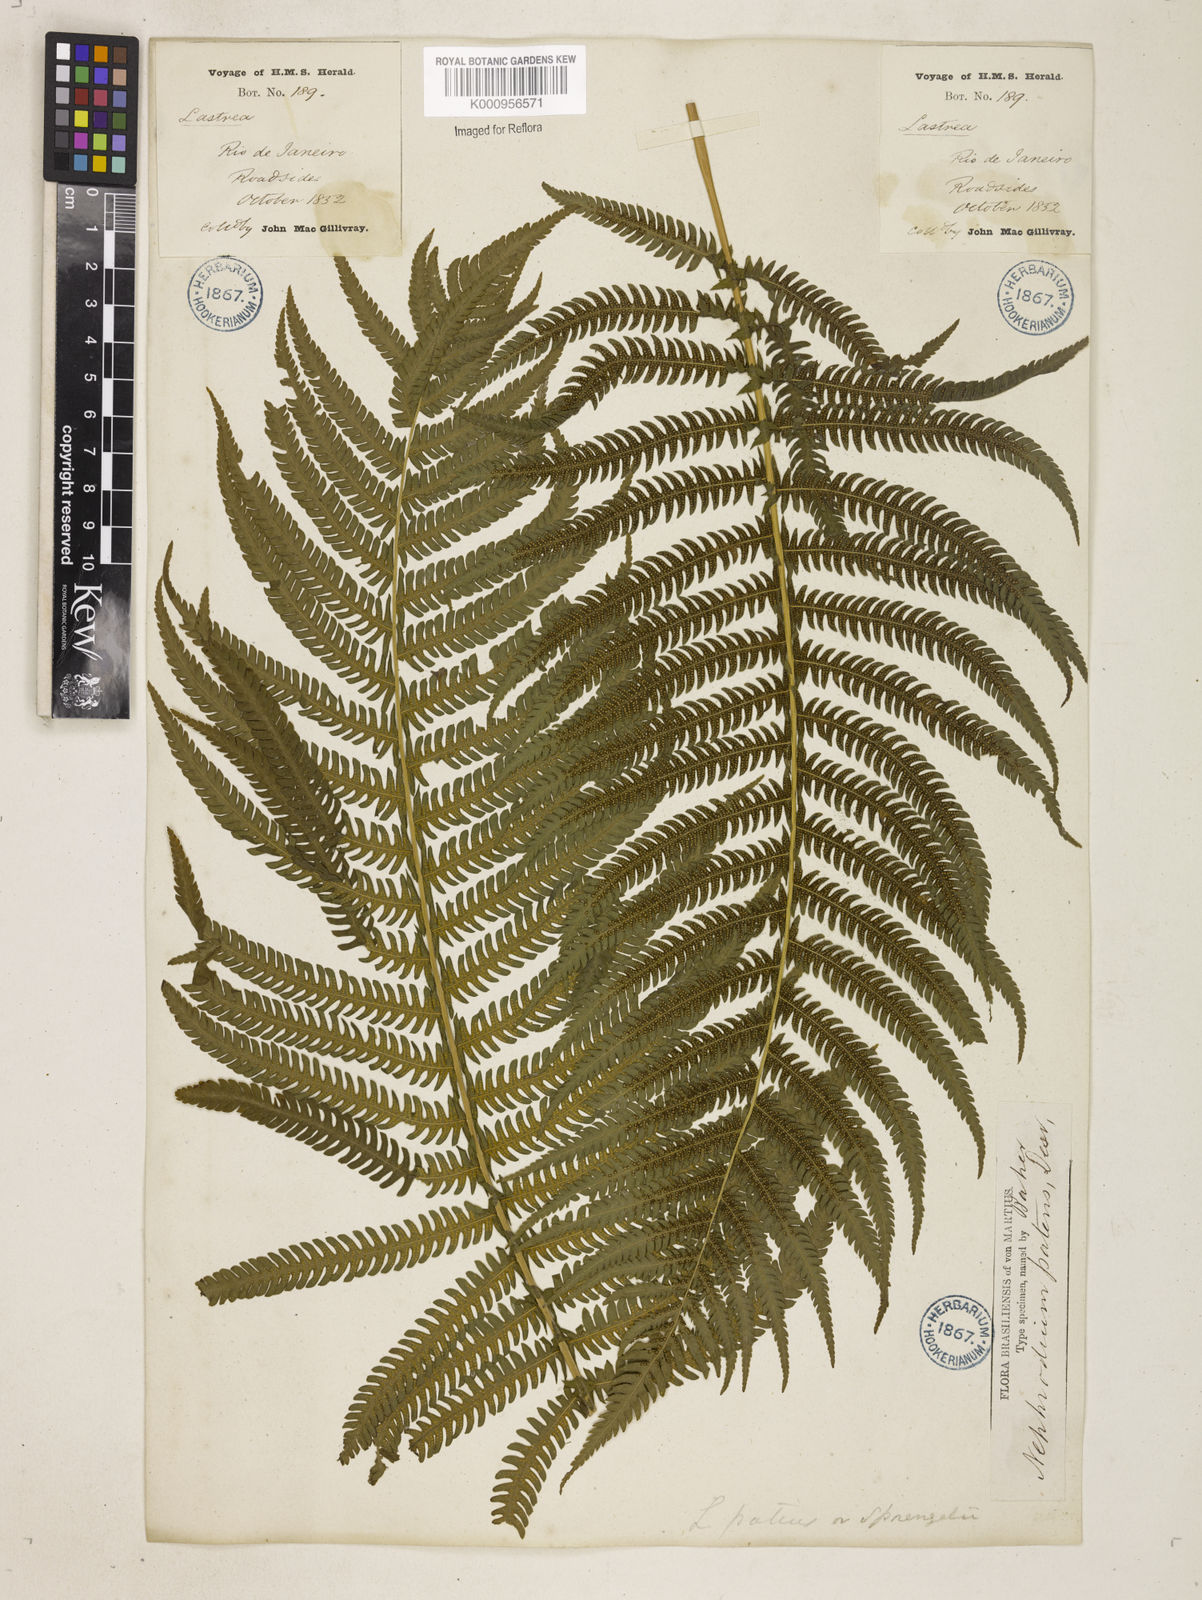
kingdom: Plantae
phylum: Tracheophyta
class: Polypodiopsida
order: Polypodiales
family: Thelypteridaceae
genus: Pelazoneuron
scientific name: Pelazoneuron patens
